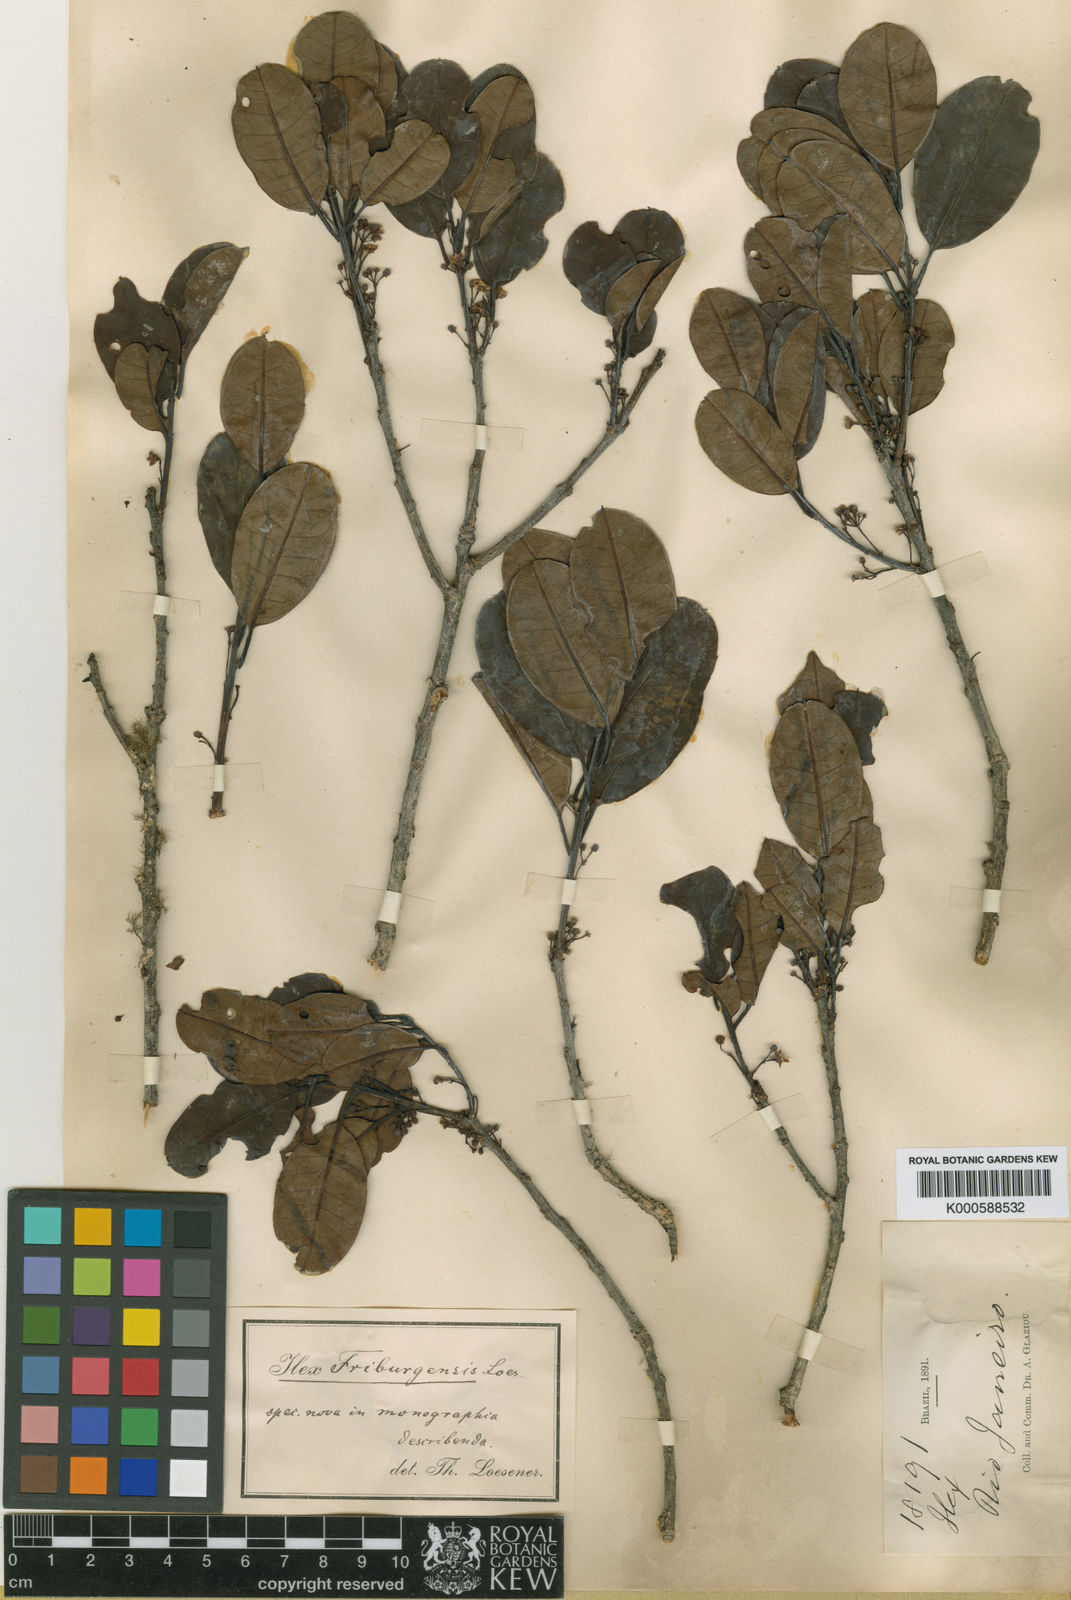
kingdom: Plantae
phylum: Tracheophyta
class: Magnoliopsida
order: Aquifoliales
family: Aquifoliaceae
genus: Ilex
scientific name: Ilex friburgensis
